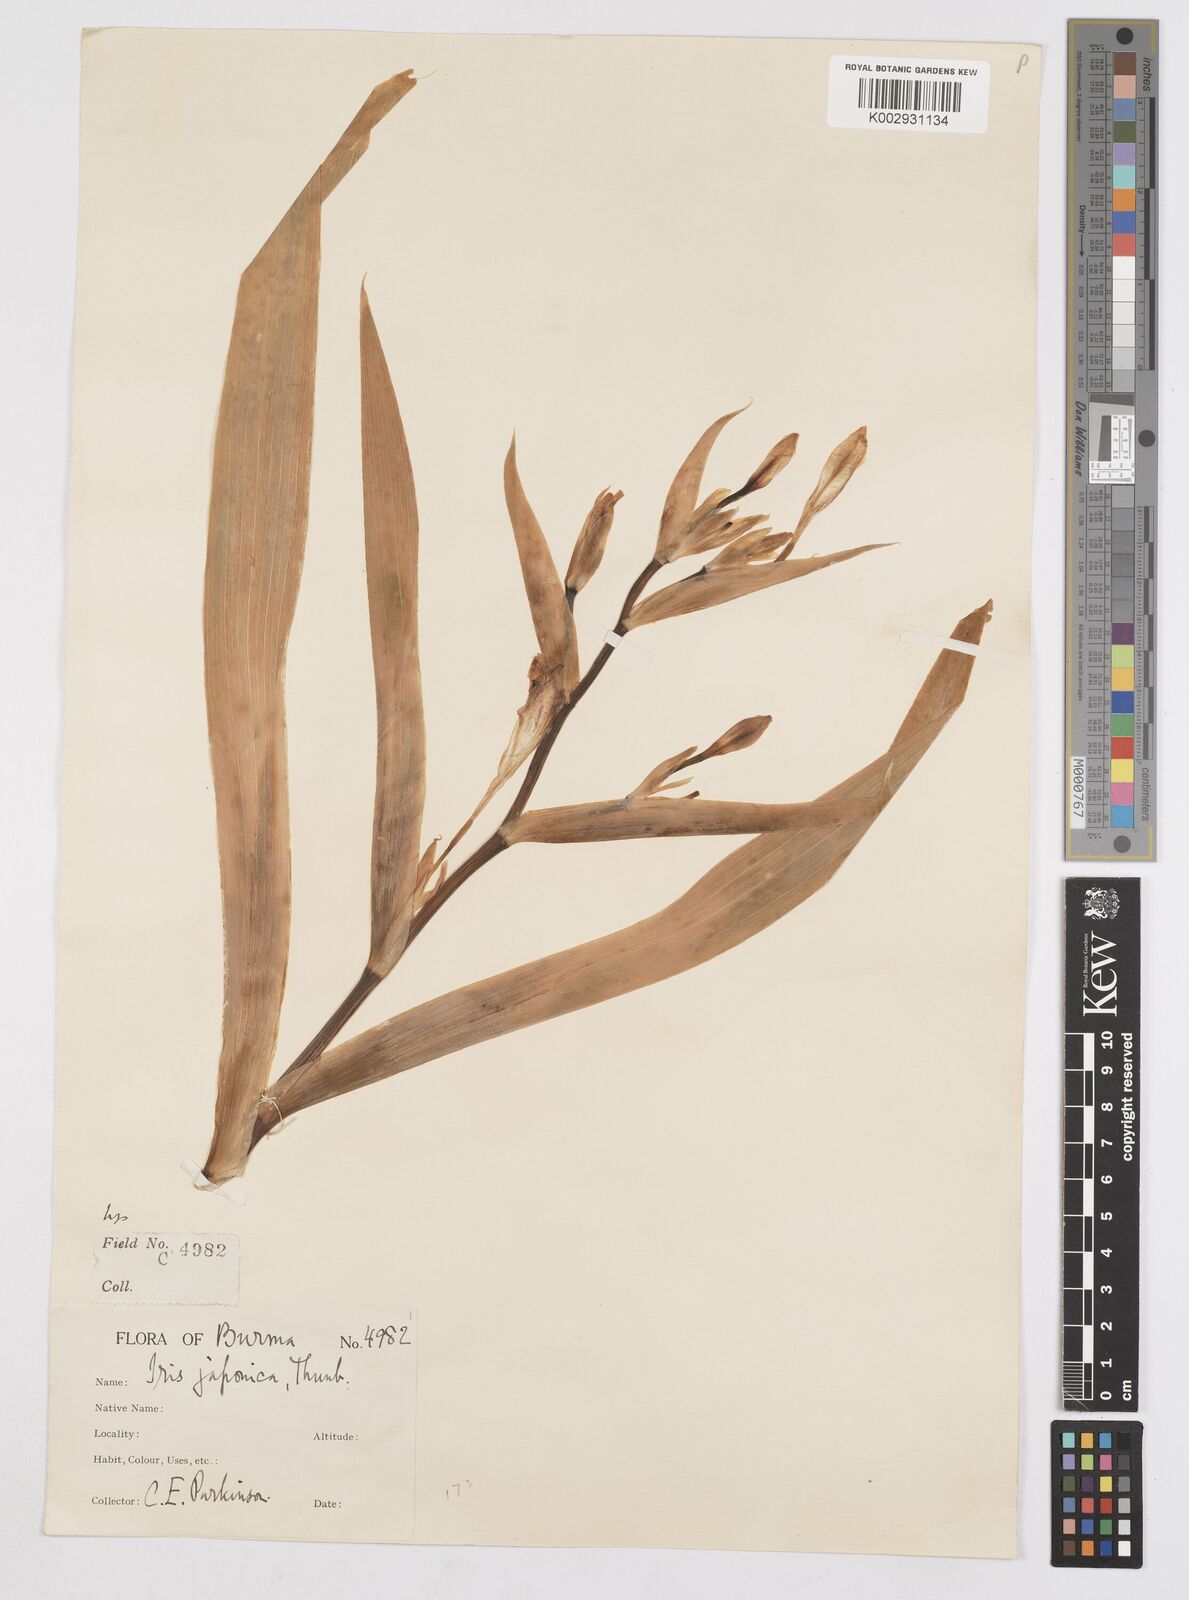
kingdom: Plantae
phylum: Tracheophyta
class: Liliopsida
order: Asparagales
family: Iridaceae
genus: Iris
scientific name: Iris japonica
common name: Butterfly-flower
